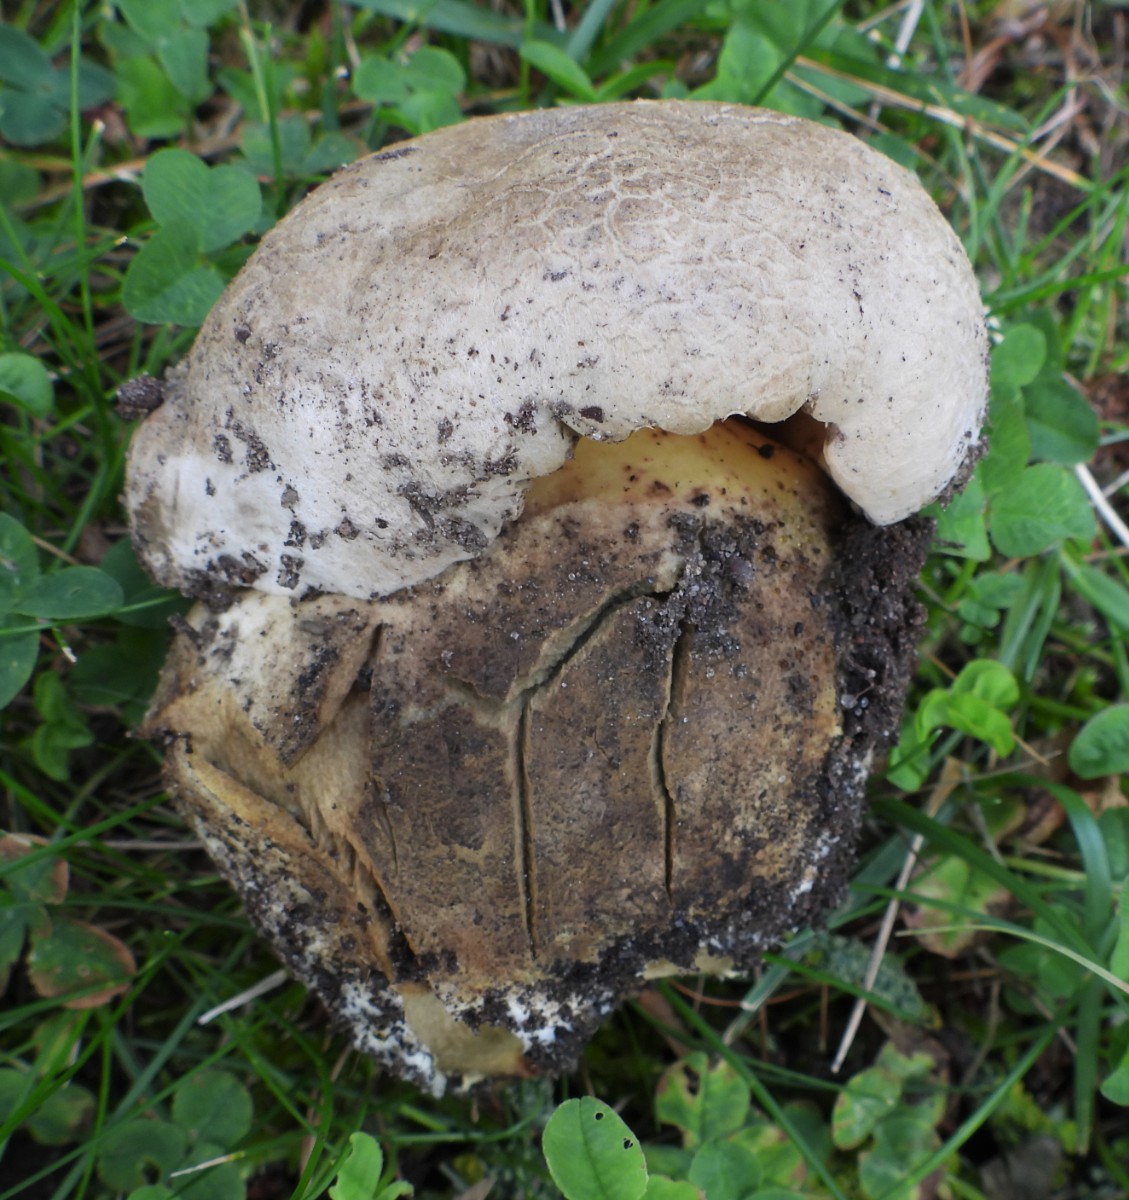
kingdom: Fungi
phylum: Basidiomycota
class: Agaricomycetes
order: Boletales
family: Boletaceae
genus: Caloboletus
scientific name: Caloboletus radicans
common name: rod-rørhat
